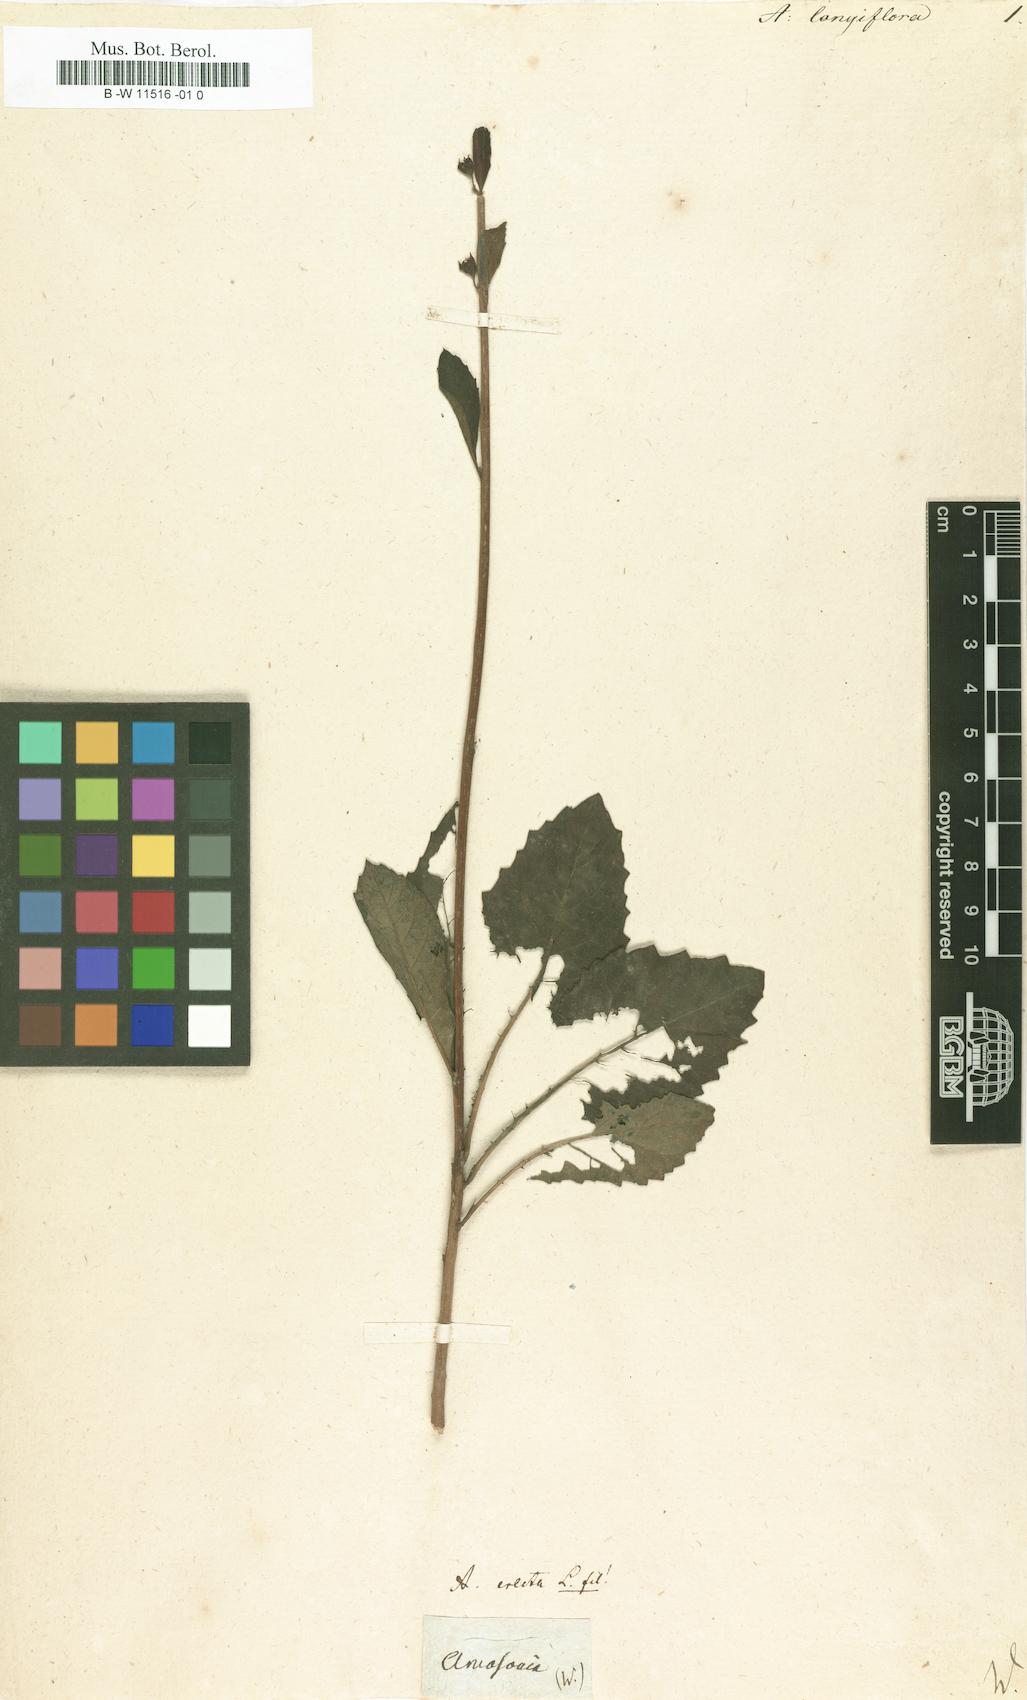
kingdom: Plantae
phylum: Tracheophyta
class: Magnoliopsida
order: Lamiales
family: Lamiaceae
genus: Amasonia
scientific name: Amasonia
